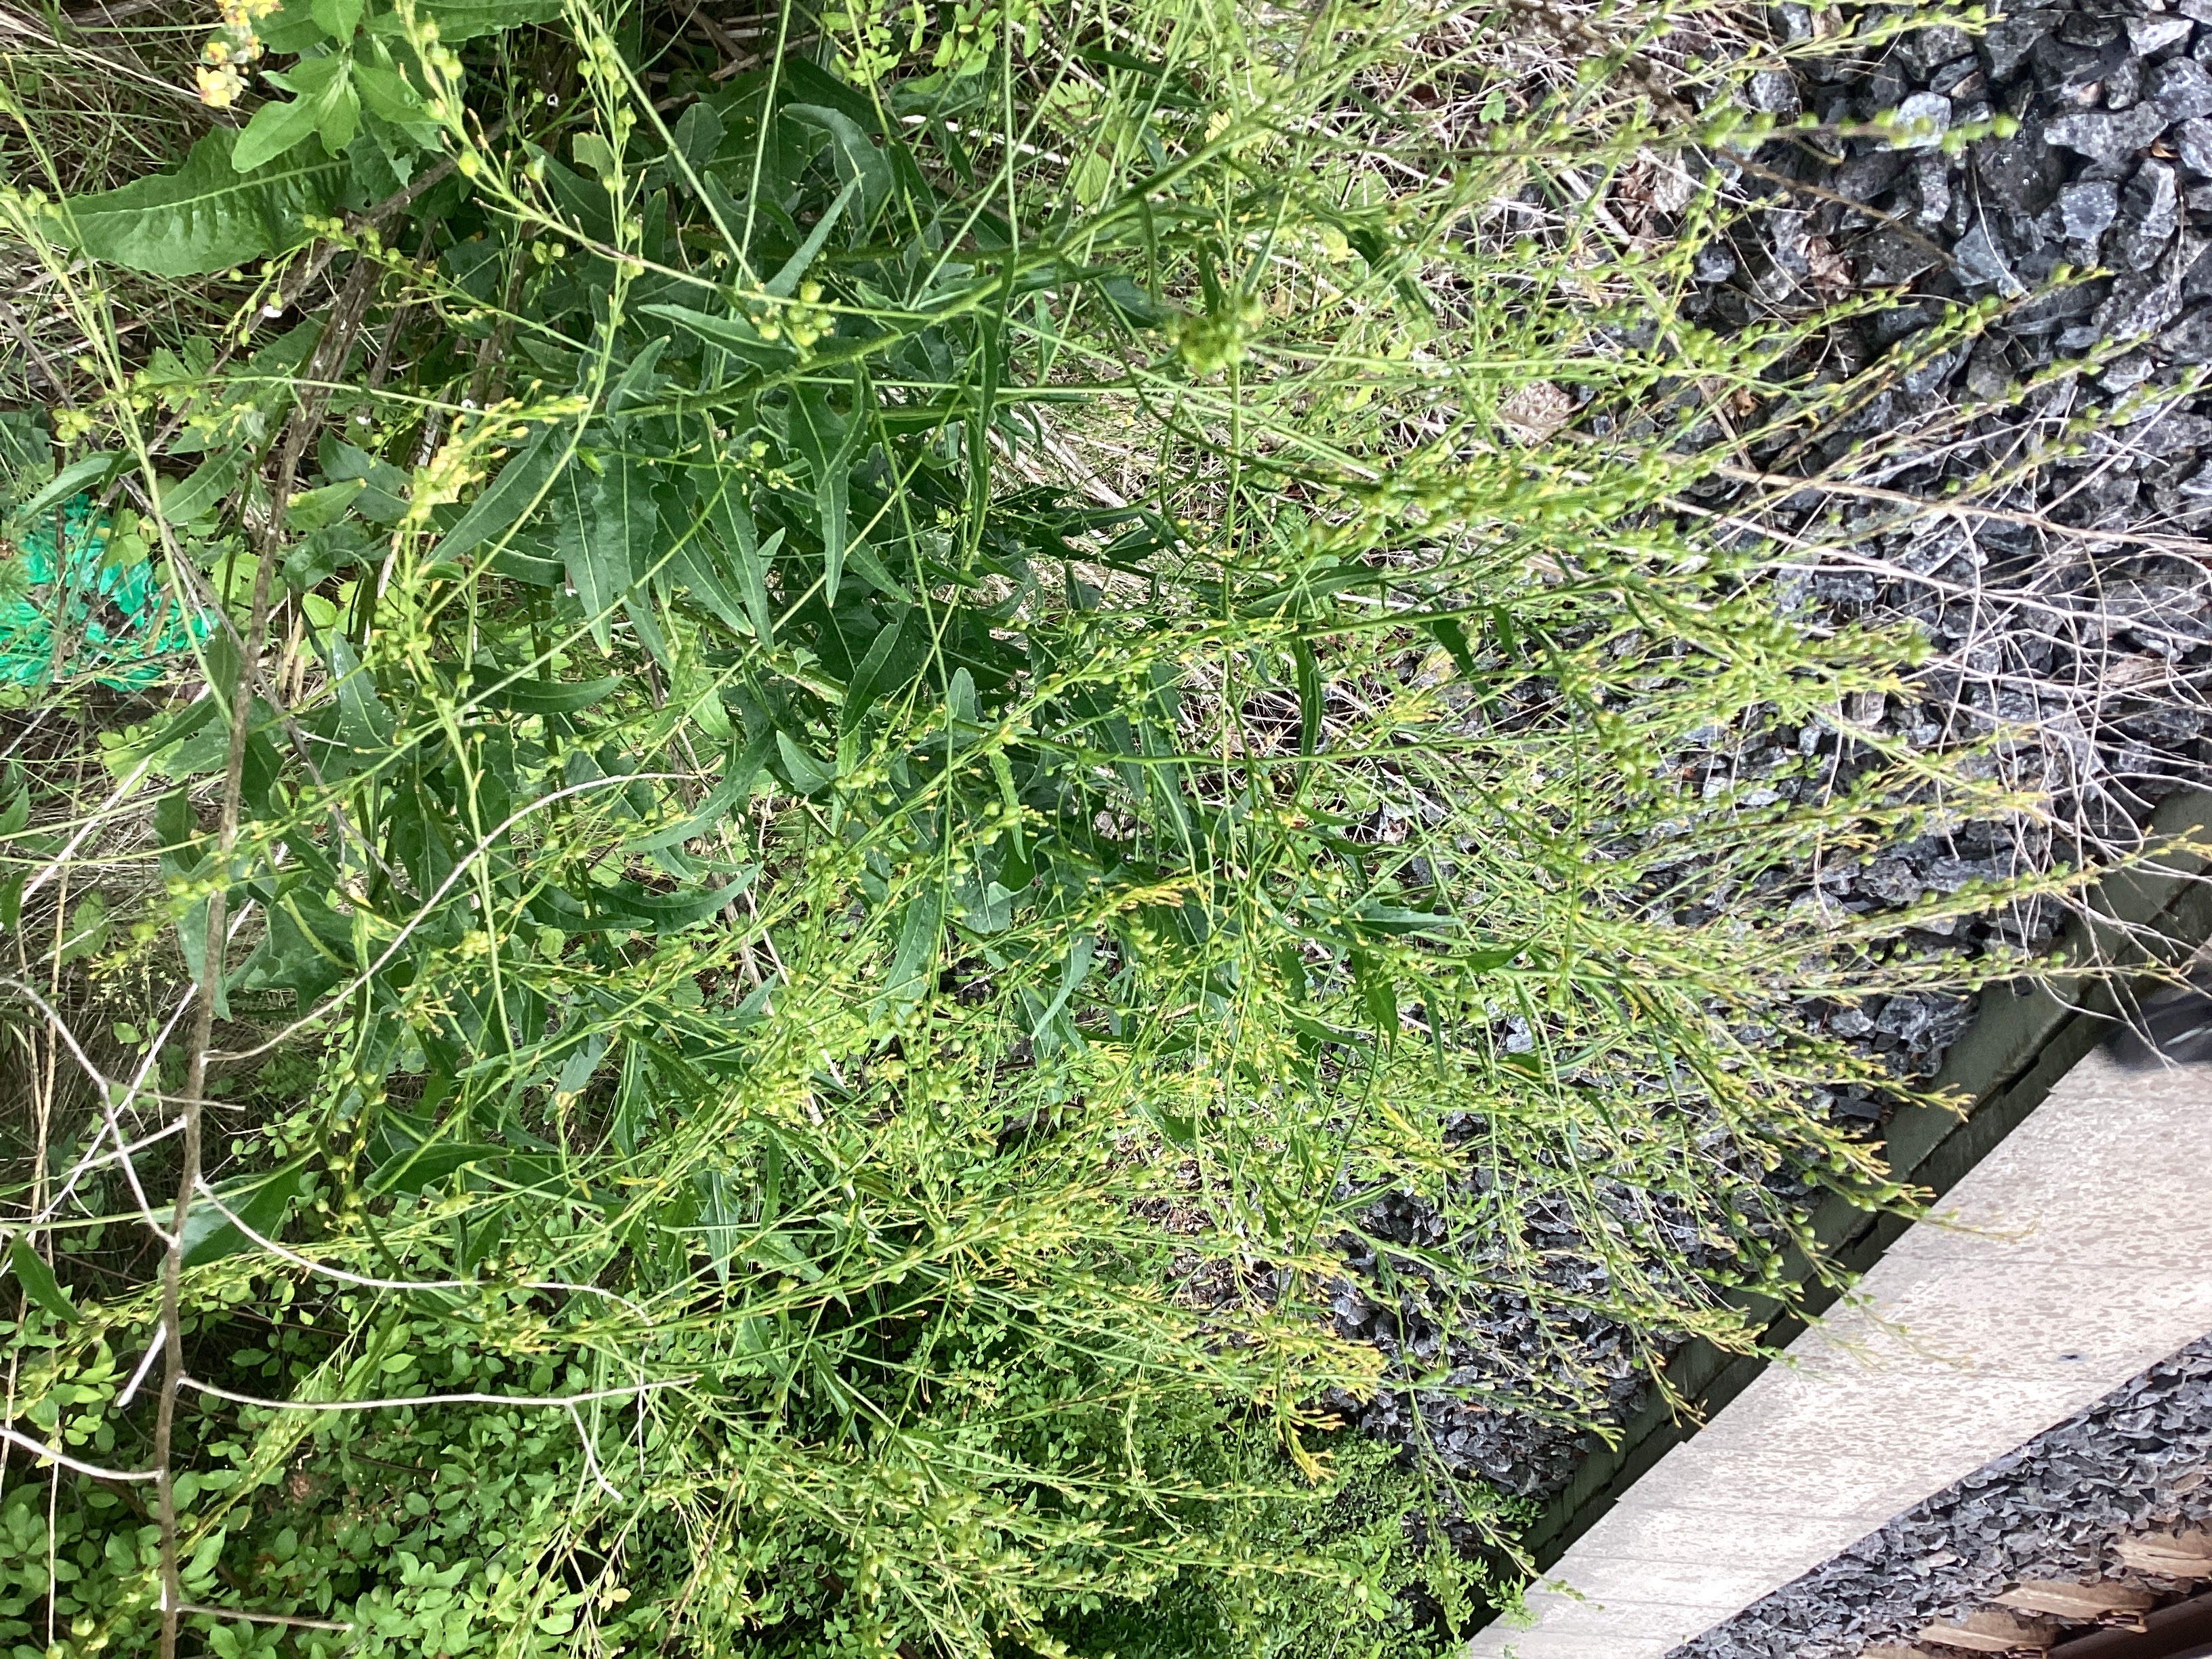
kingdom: Plantae
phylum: Tracheophyta
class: Magnoliopsida
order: Brassicales
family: Brassicaceae
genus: Bunias
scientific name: Bunias orientalis
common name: russekål
